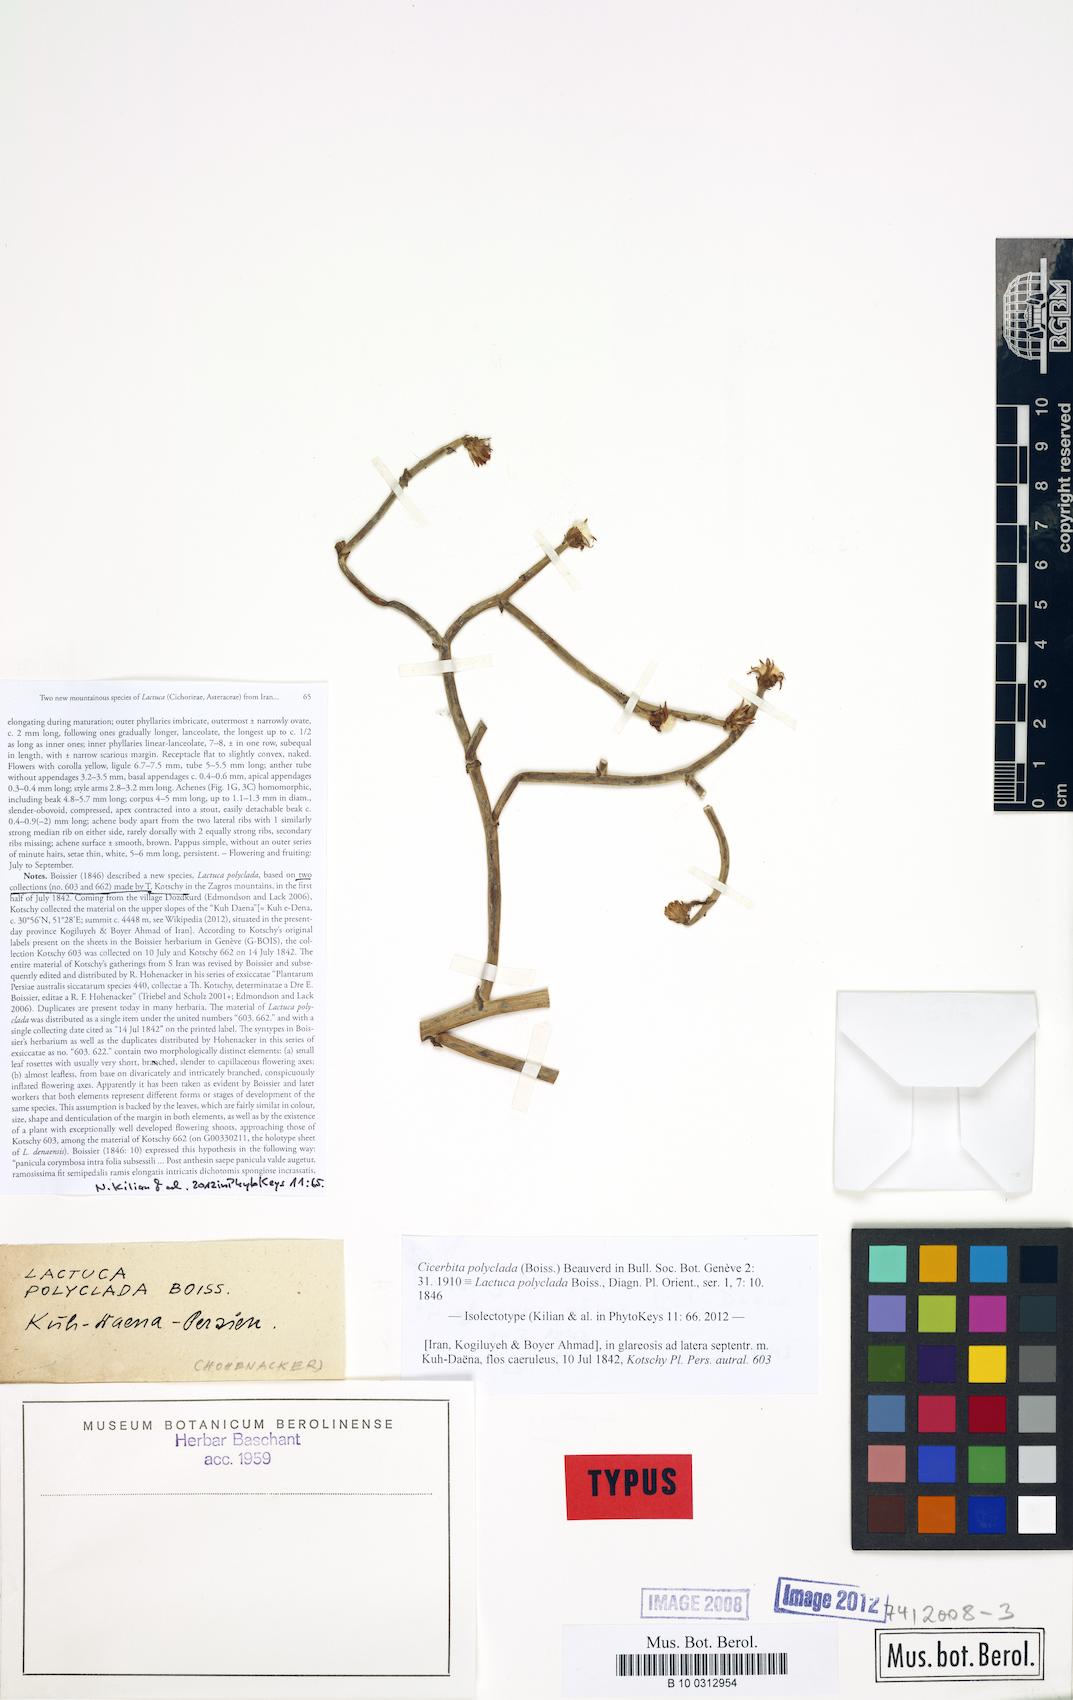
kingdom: Plantae
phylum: Tracheophyta
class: Magnoliopsida
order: Asterales
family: Asteraceae
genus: Lactuca
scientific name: Lactuca polyclada
